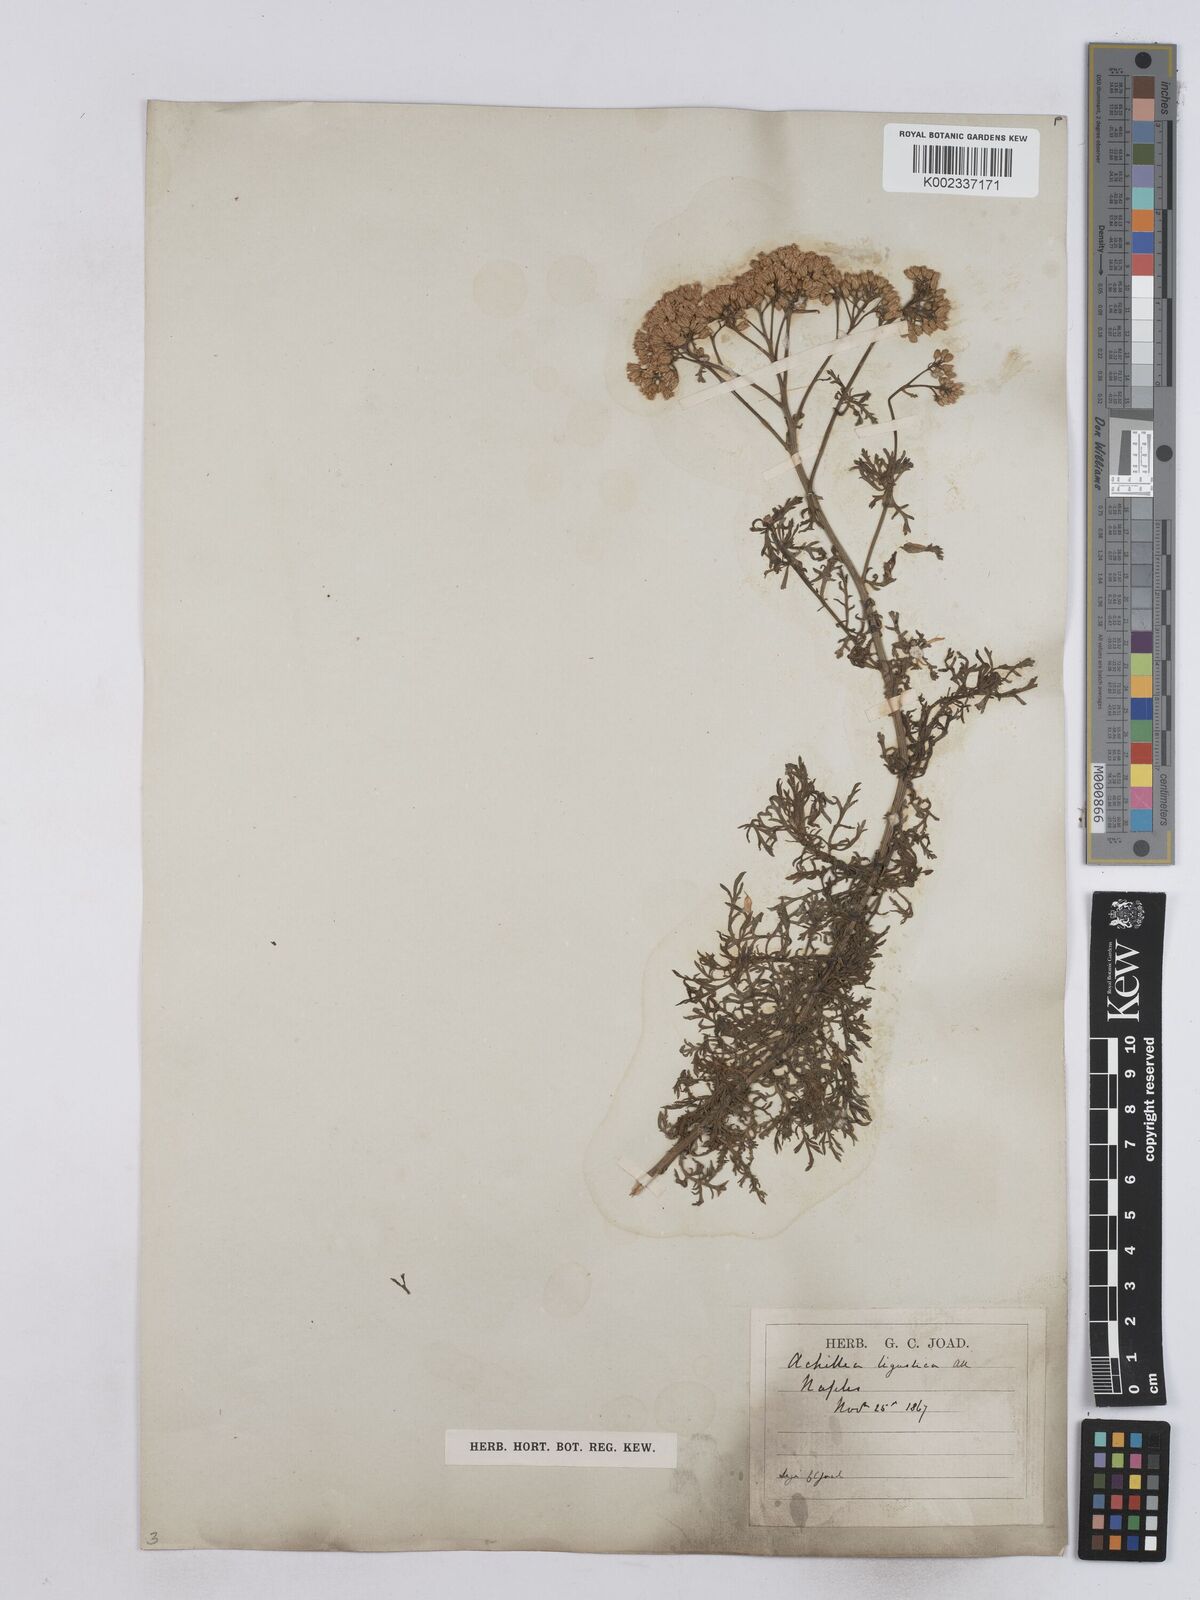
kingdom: Plantae
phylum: Tracheophyta
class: Magnoliopsida
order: Asterales
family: Asteraceae
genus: Achillea
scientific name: Achillea ligustica
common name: Southern yarrow
